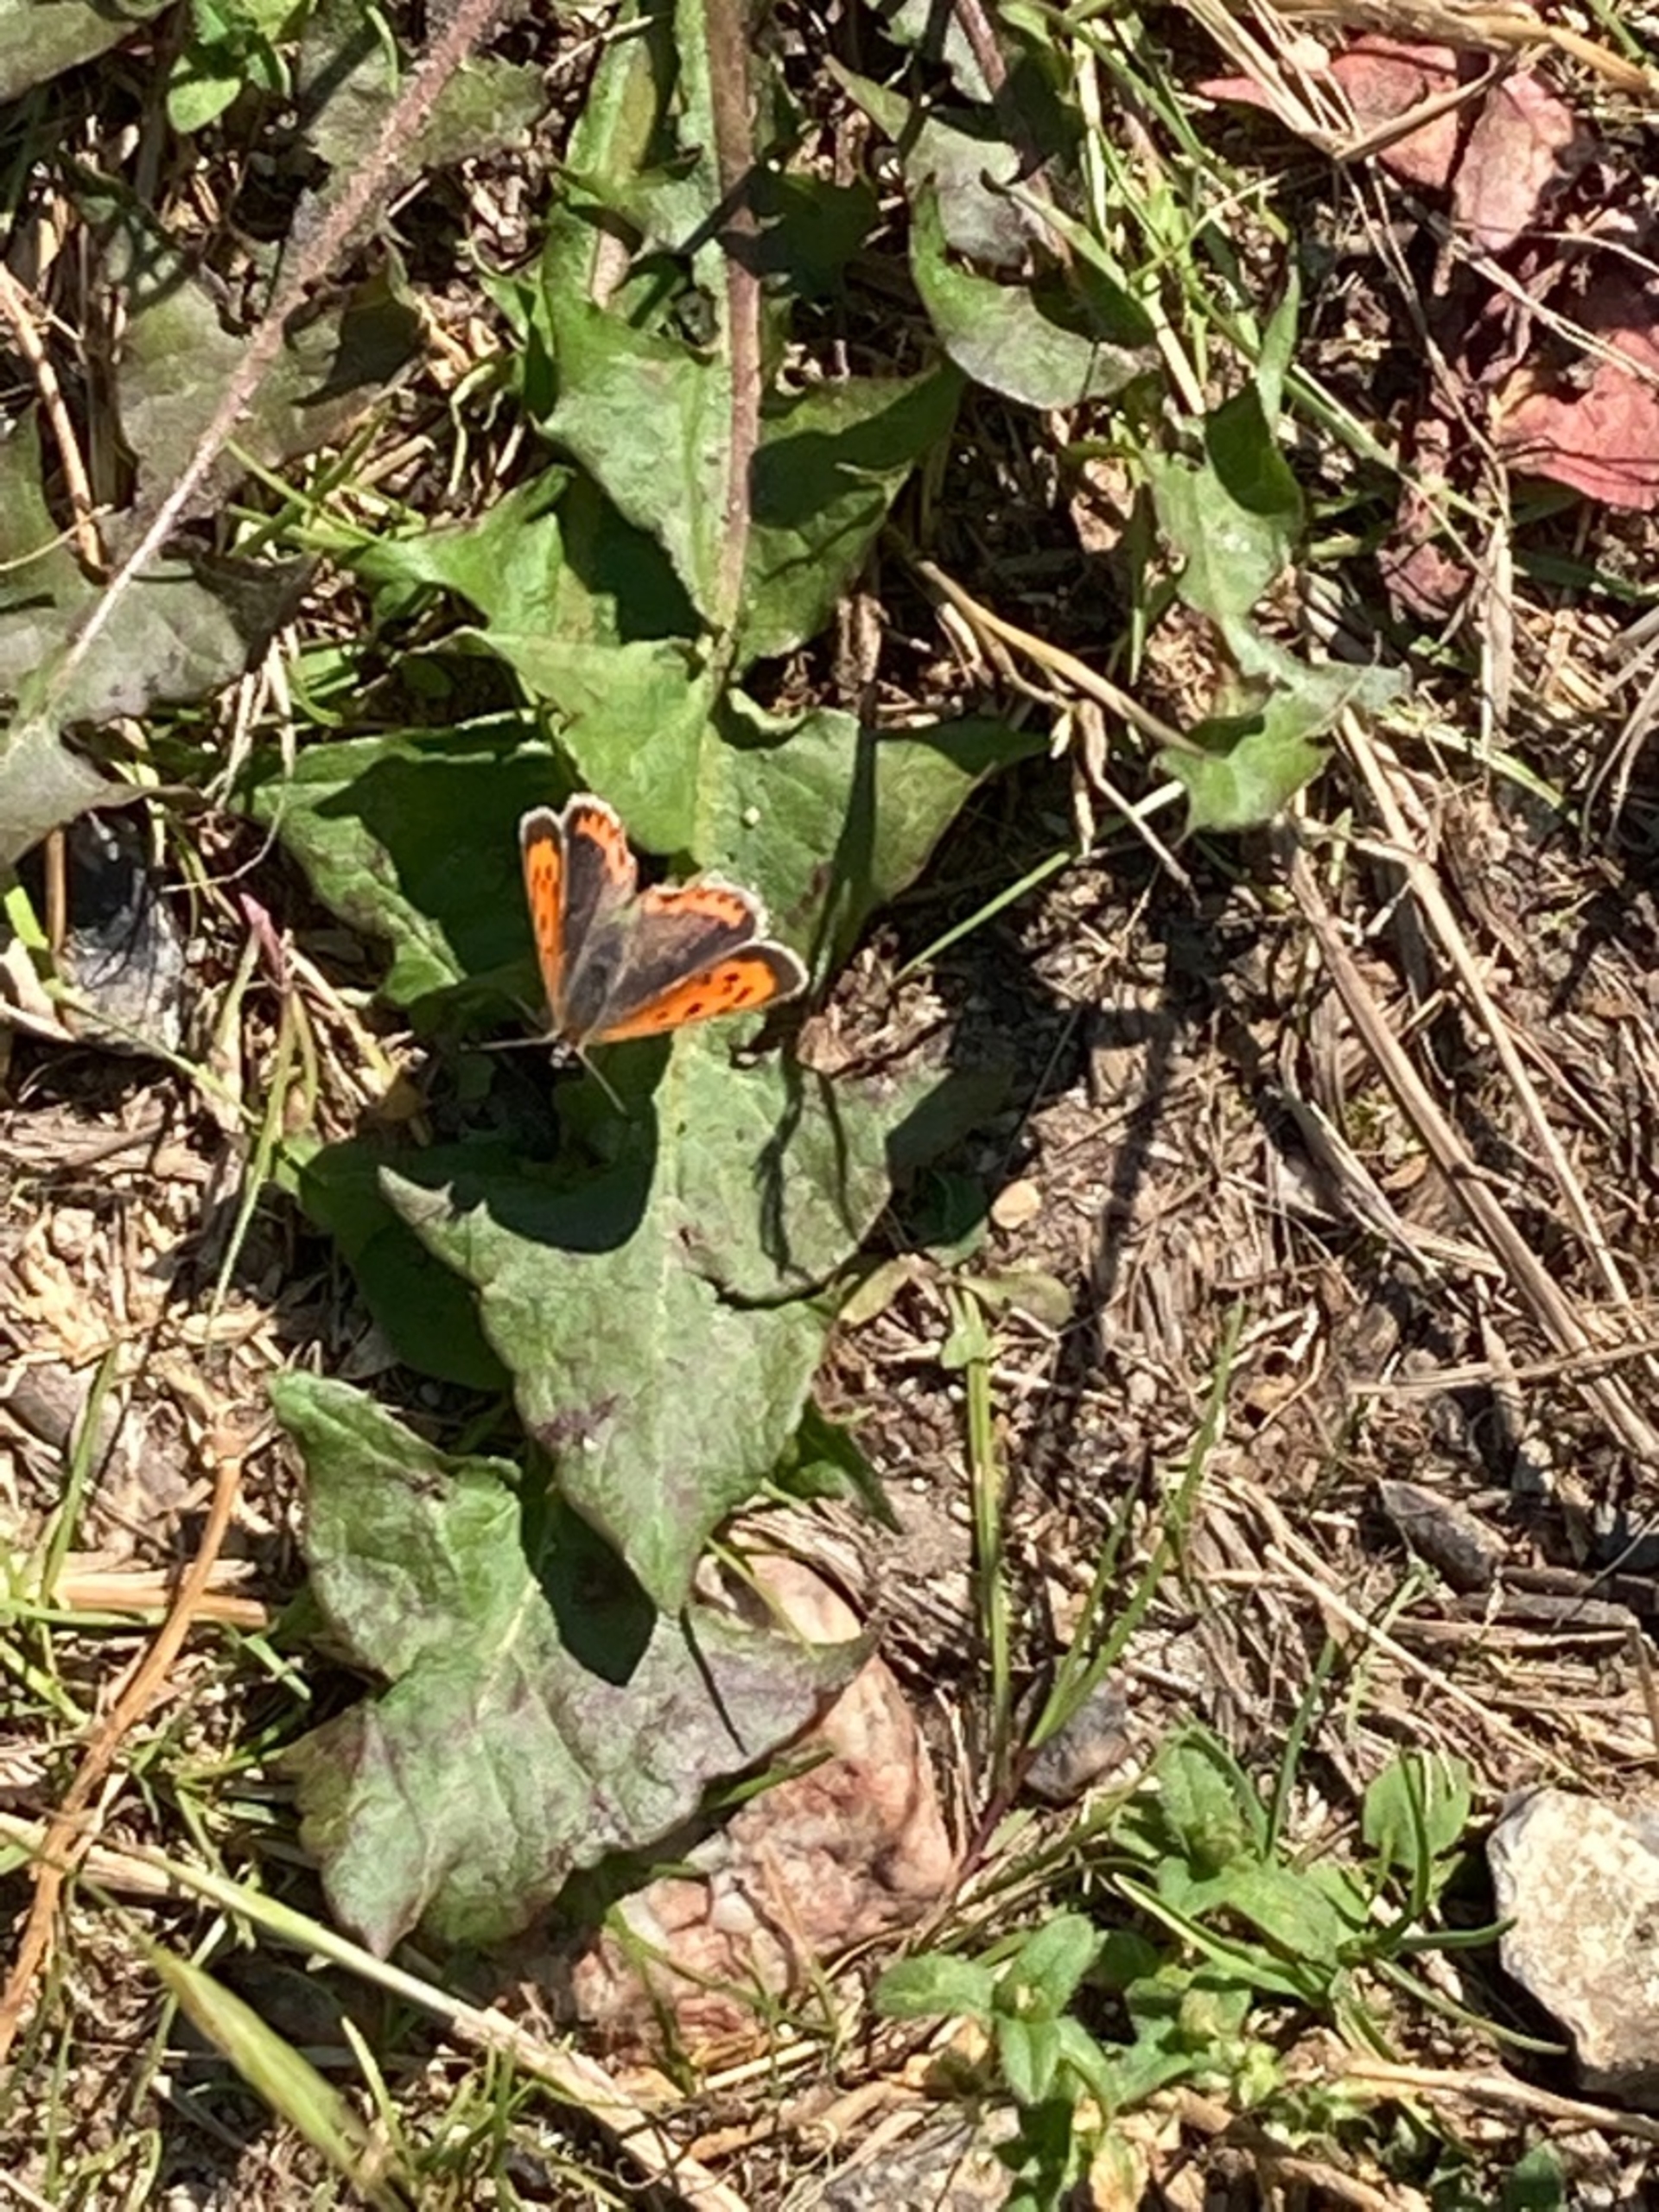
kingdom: Animalia
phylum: Arthropoda
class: Insecta
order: Lepidoptera
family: Lycaenidae
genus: Lycaena
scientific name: Lycaena phlaeas
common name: Lille ildfugl
